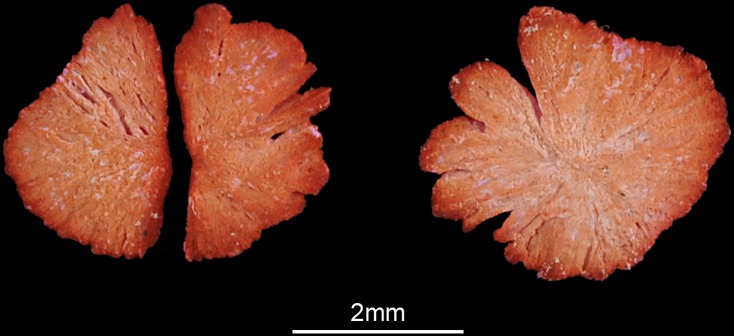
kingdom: Animalia
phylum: Chordata
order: Characiformes
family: Hepsetidae
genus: Hepsetus
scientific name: Hepsetus odoe
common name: African pike
